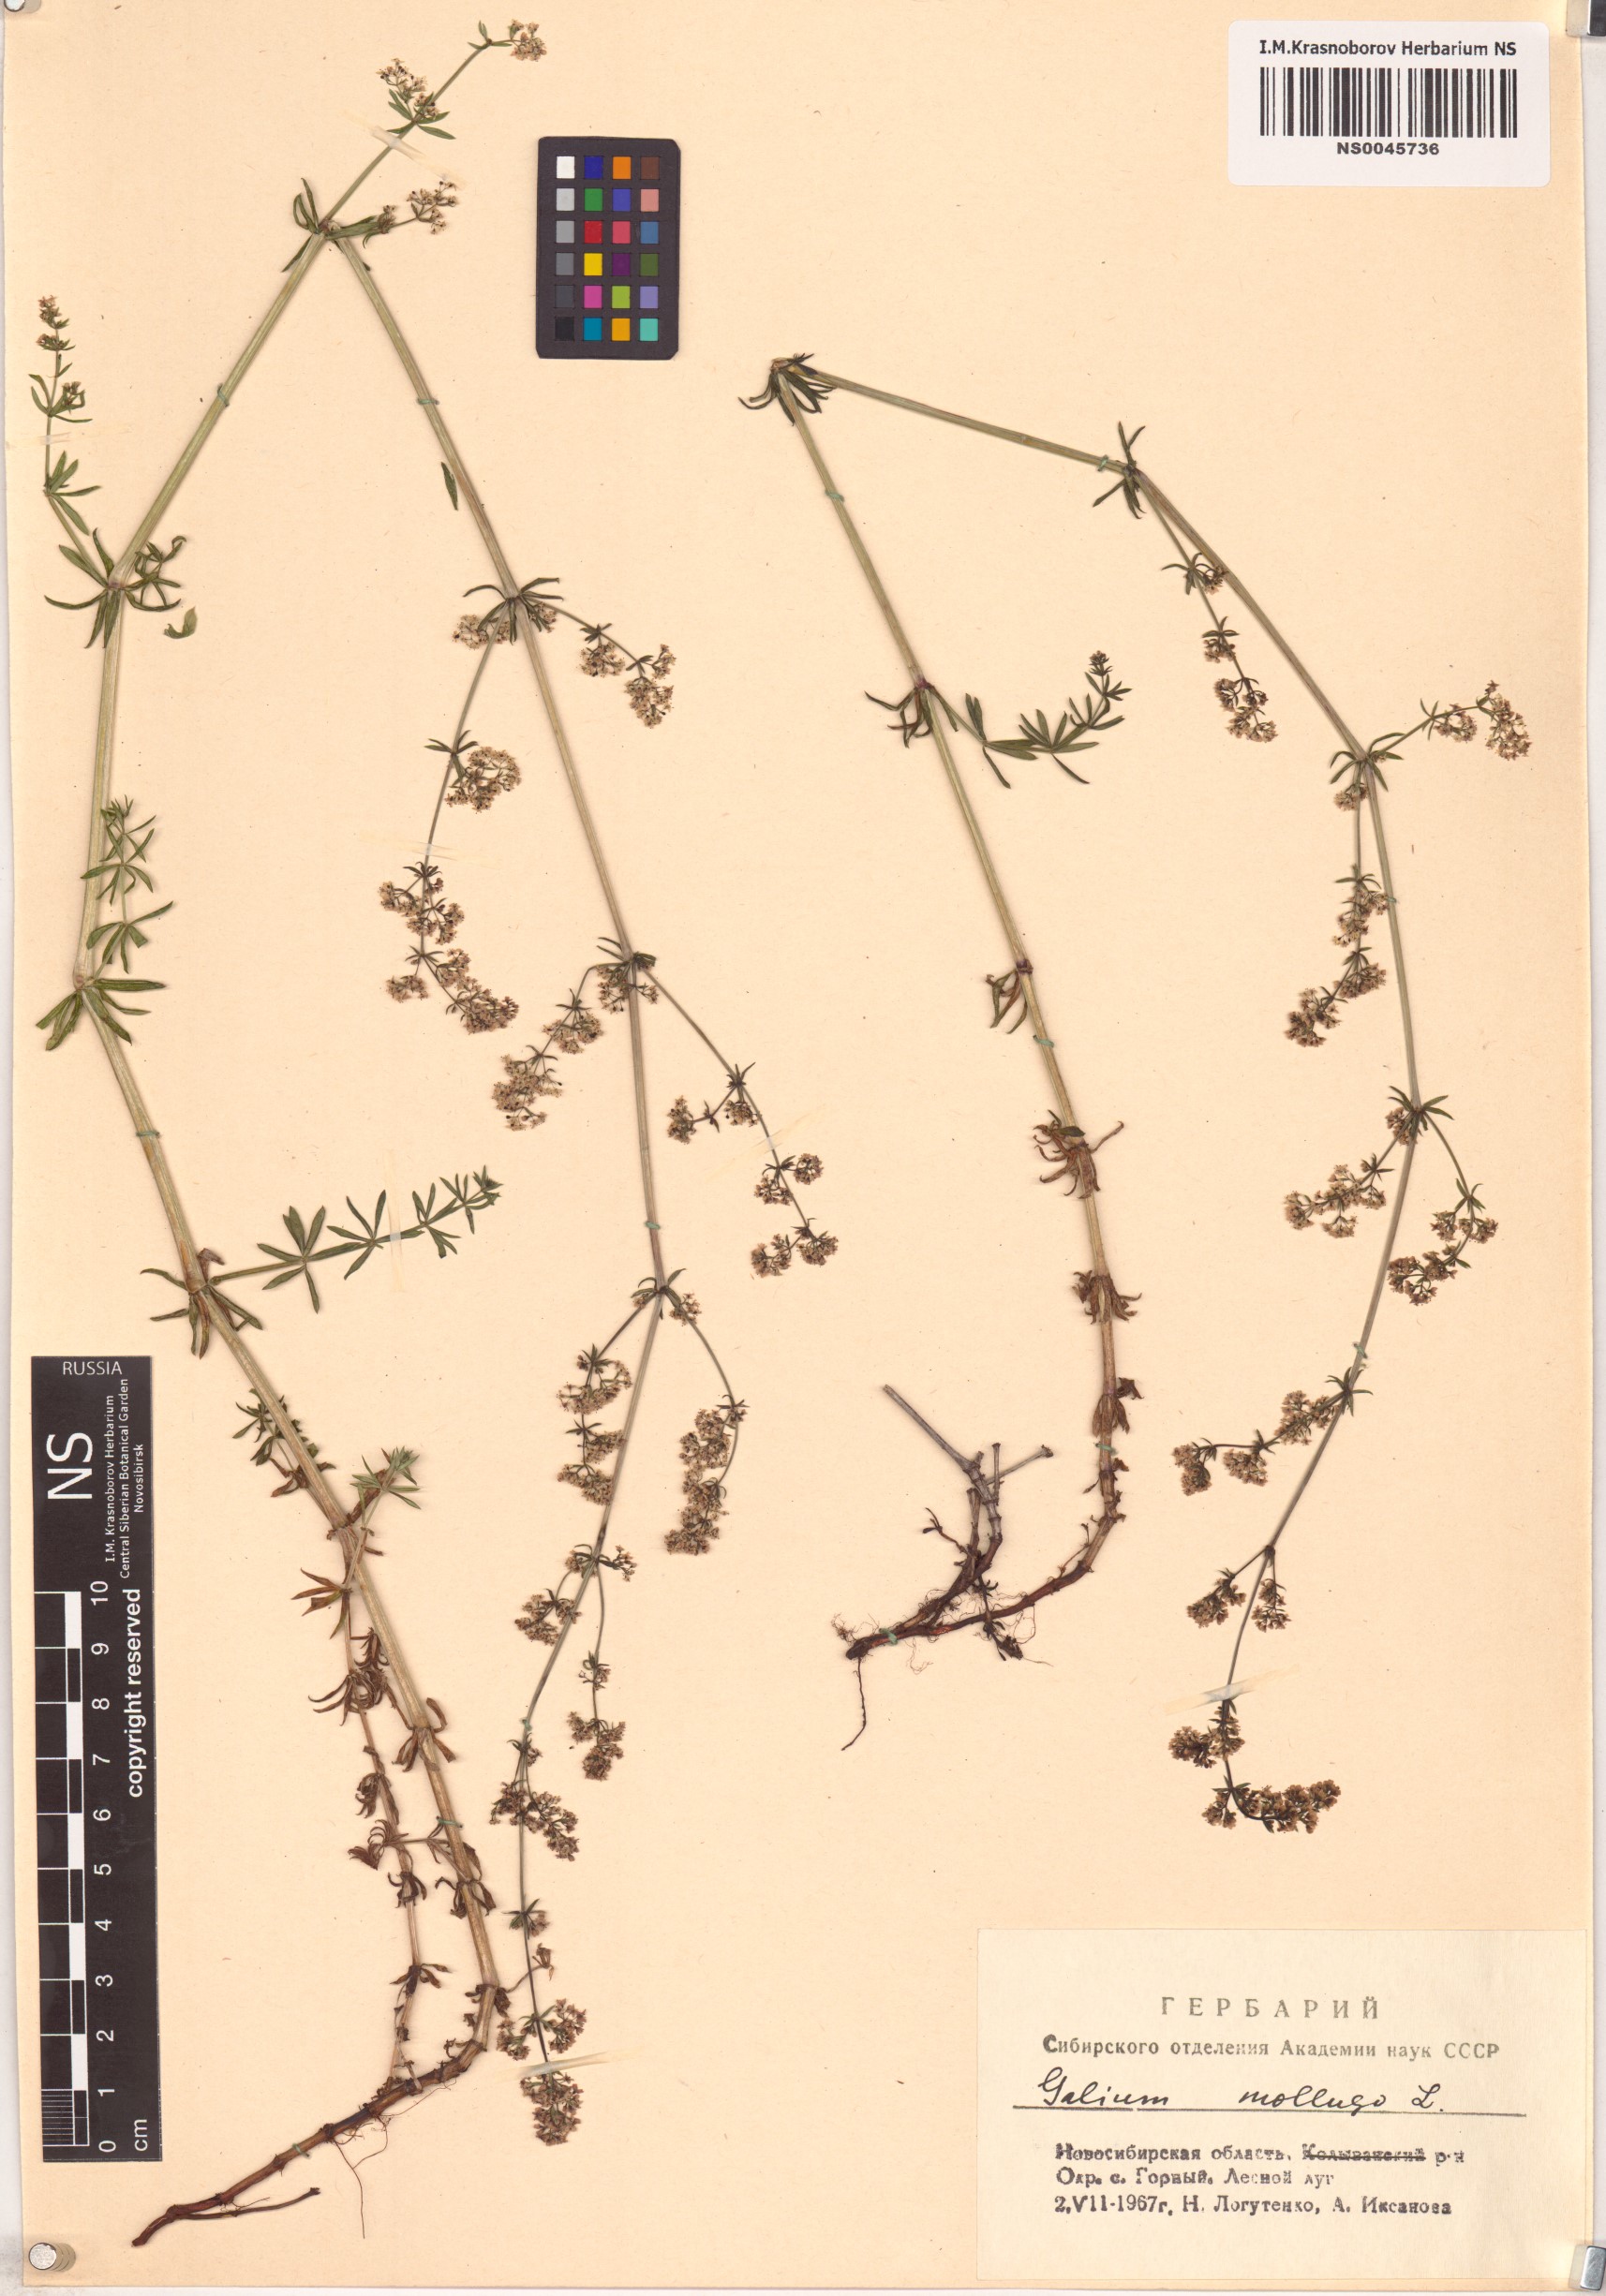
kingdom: Plantae
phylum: Tracheophyta
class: Magnoliopsida
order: Gentianales
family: Rubiaceae
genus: Galium
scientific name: Galium mollugo
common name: Hedge bedstraw
